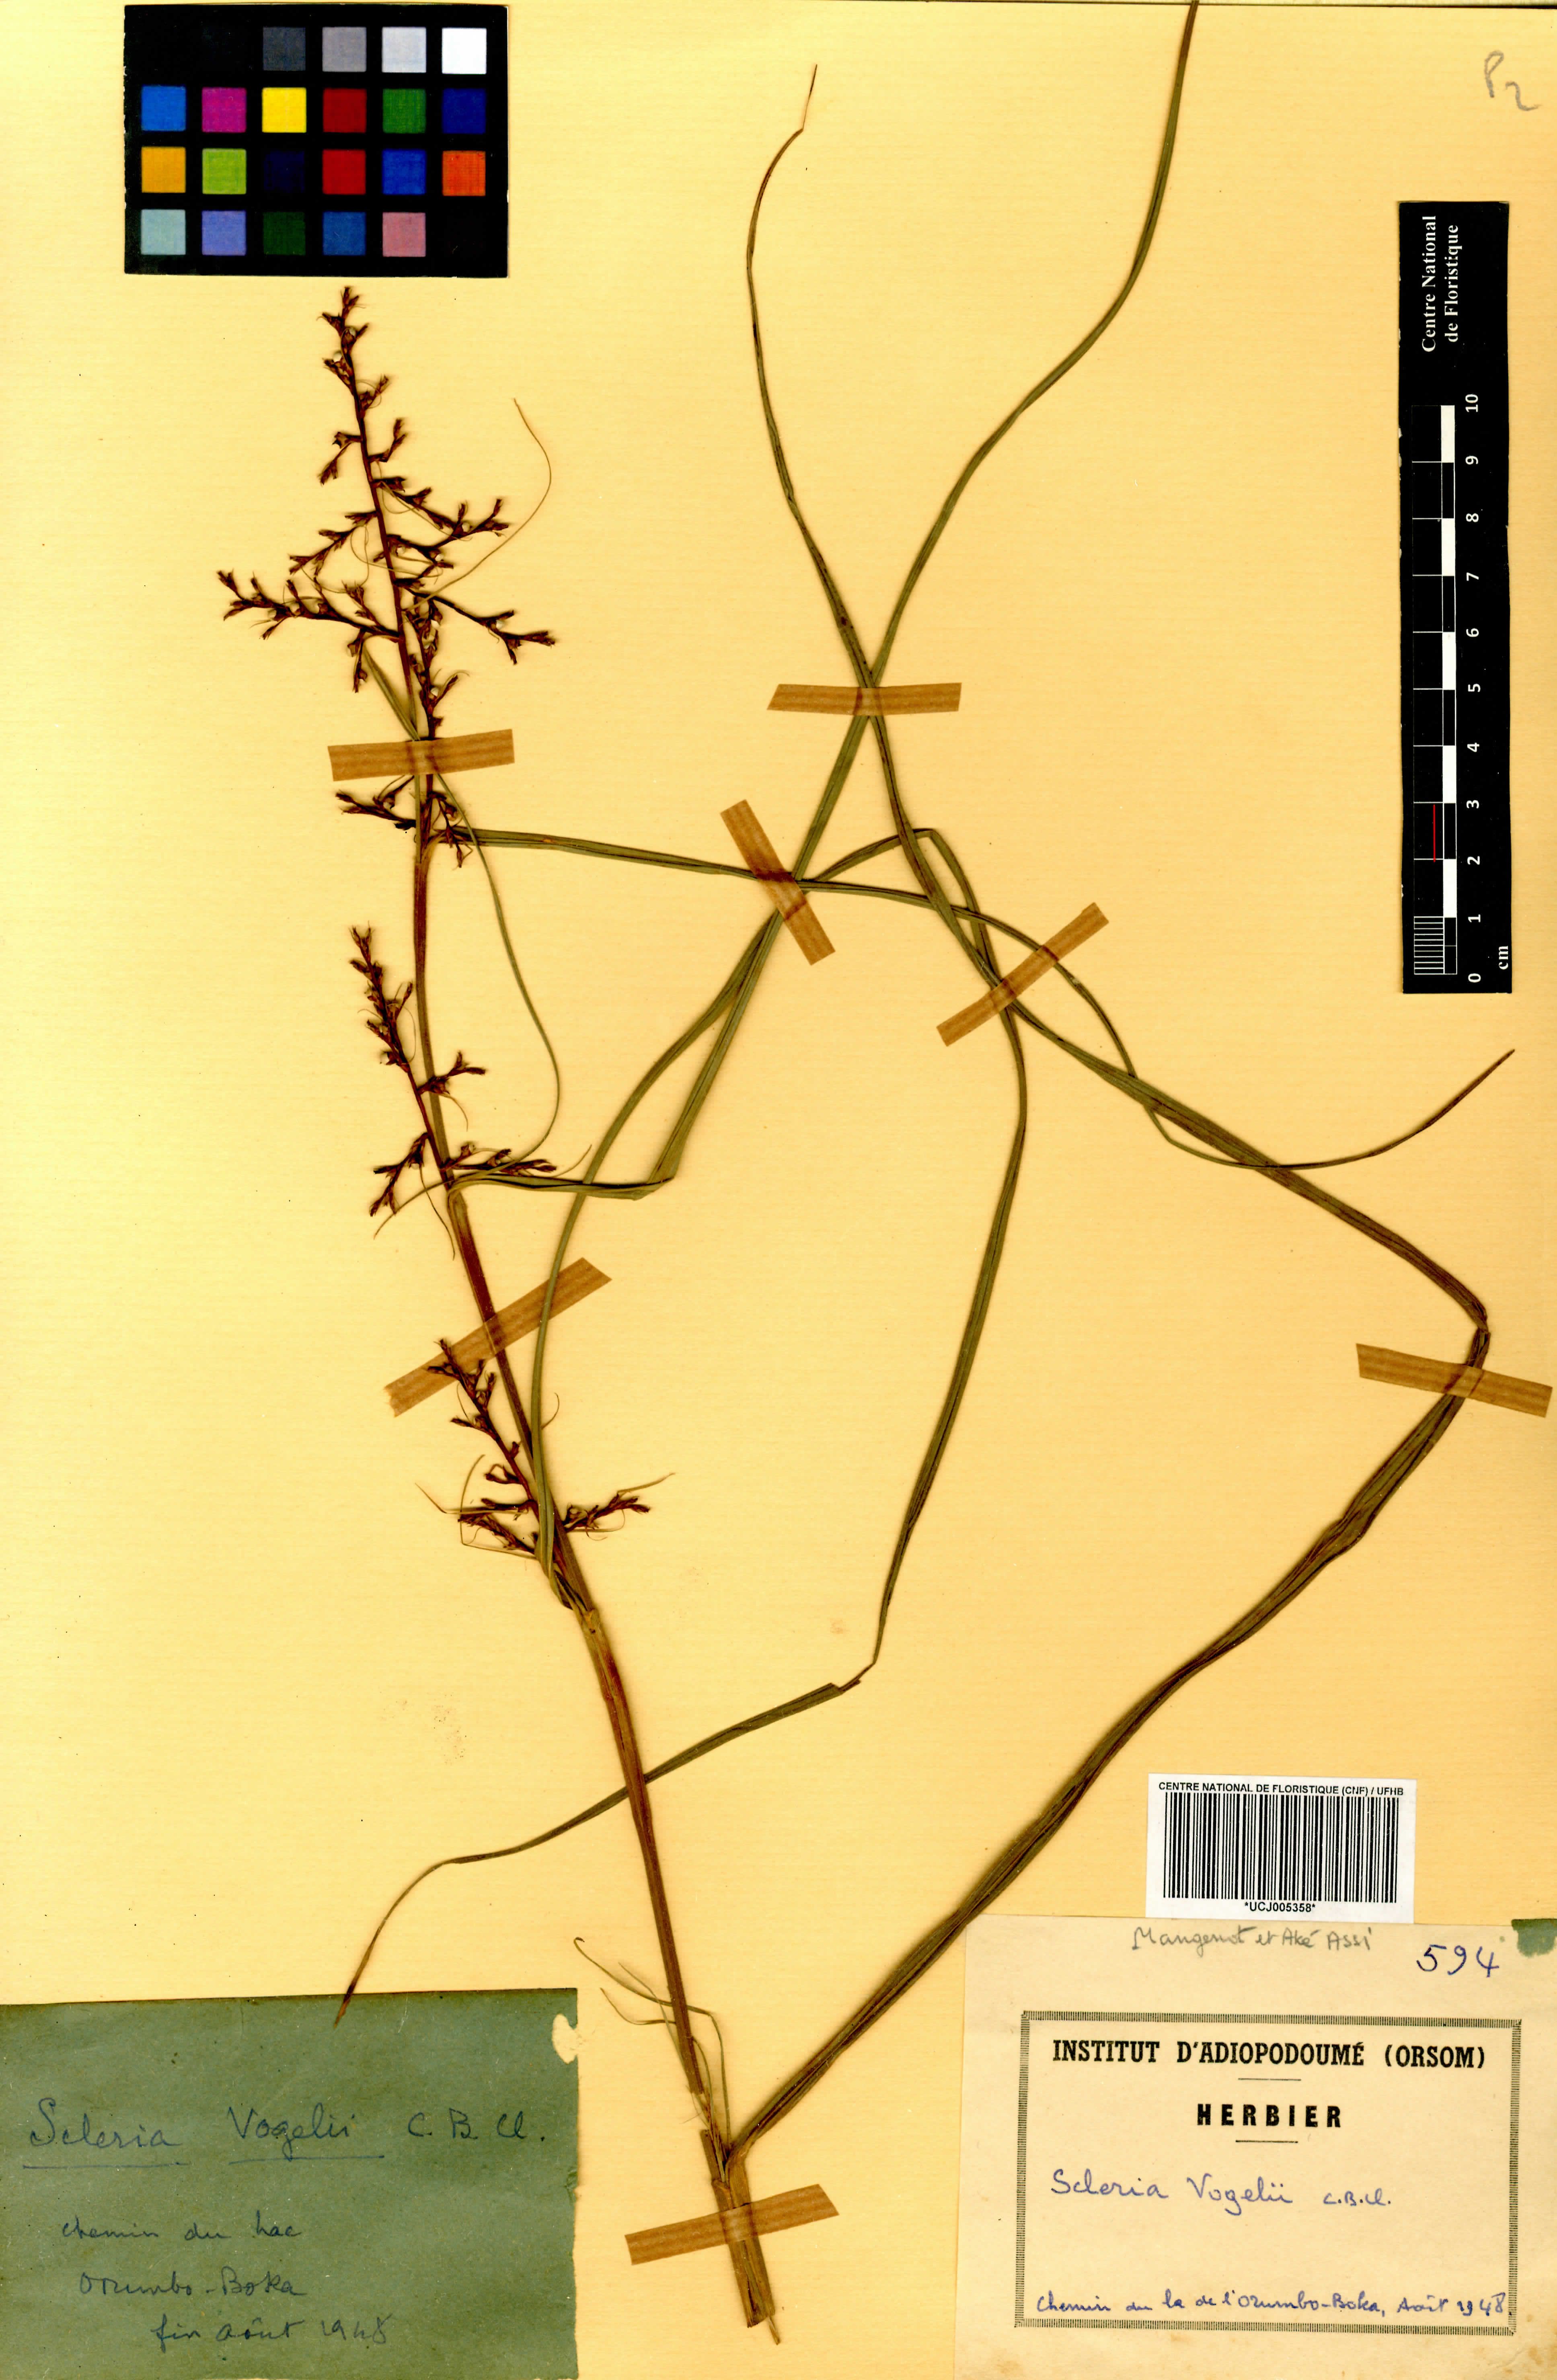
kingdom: Plantae
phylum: Tracheophyta
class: Liliopsida
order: Poales
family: Cyperaceae
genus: Scleria
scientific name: Scleria vogelii
